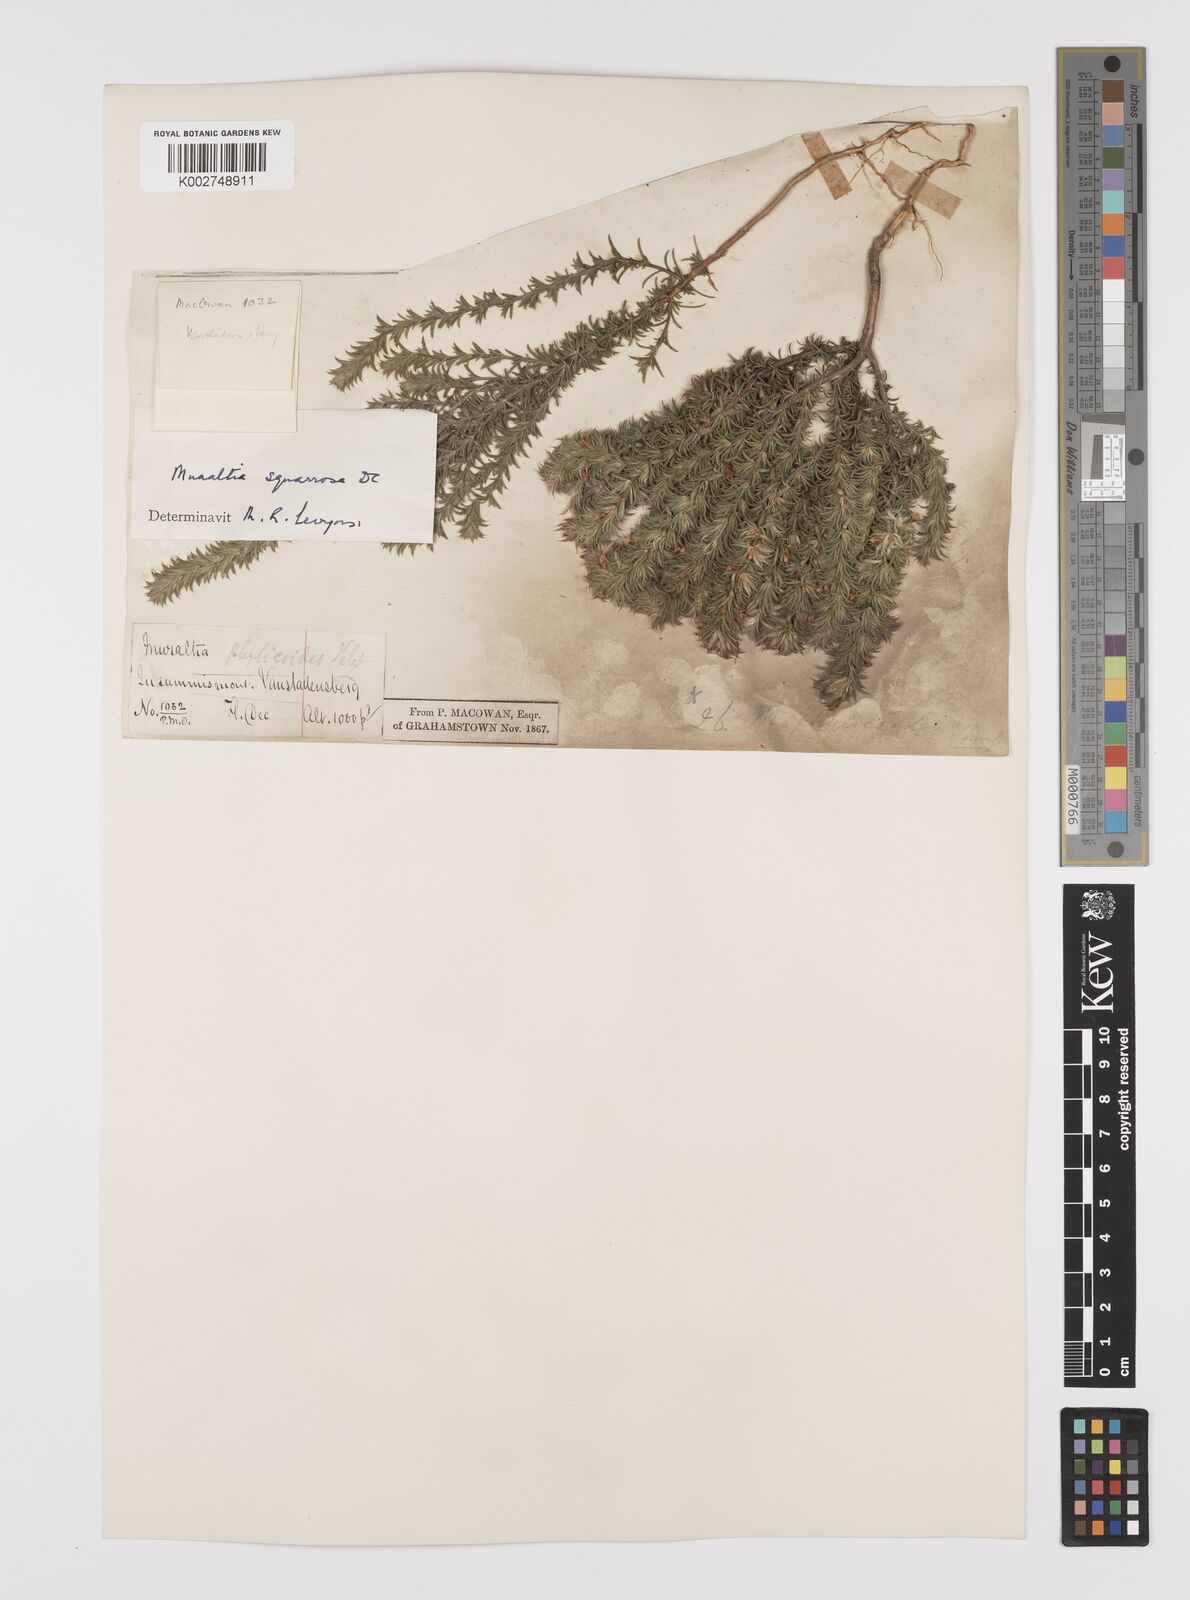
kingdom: Plantae
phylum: Tracheophyta
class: Magnoliopsida
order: Fabales
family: Polygalaceae
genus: Muraltia
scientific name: Muraltia squarrosa
